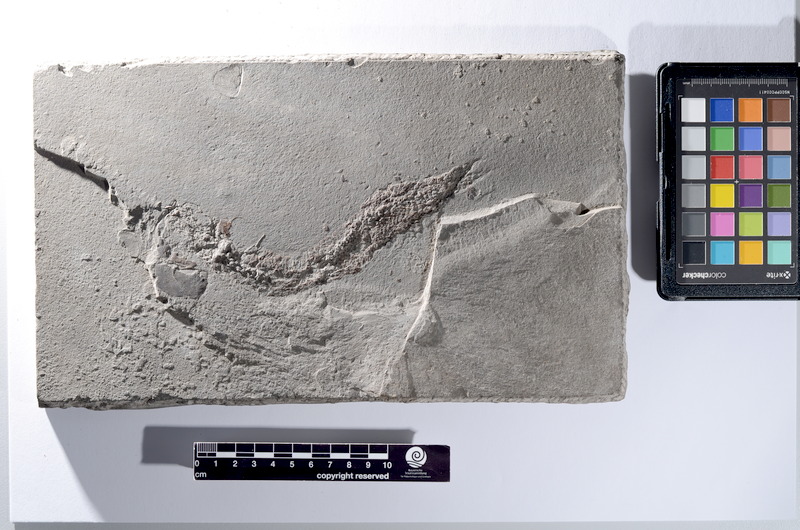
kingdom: Animalia
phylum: Chordata
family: Pholidophoridae
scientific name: Pholidophoridae
